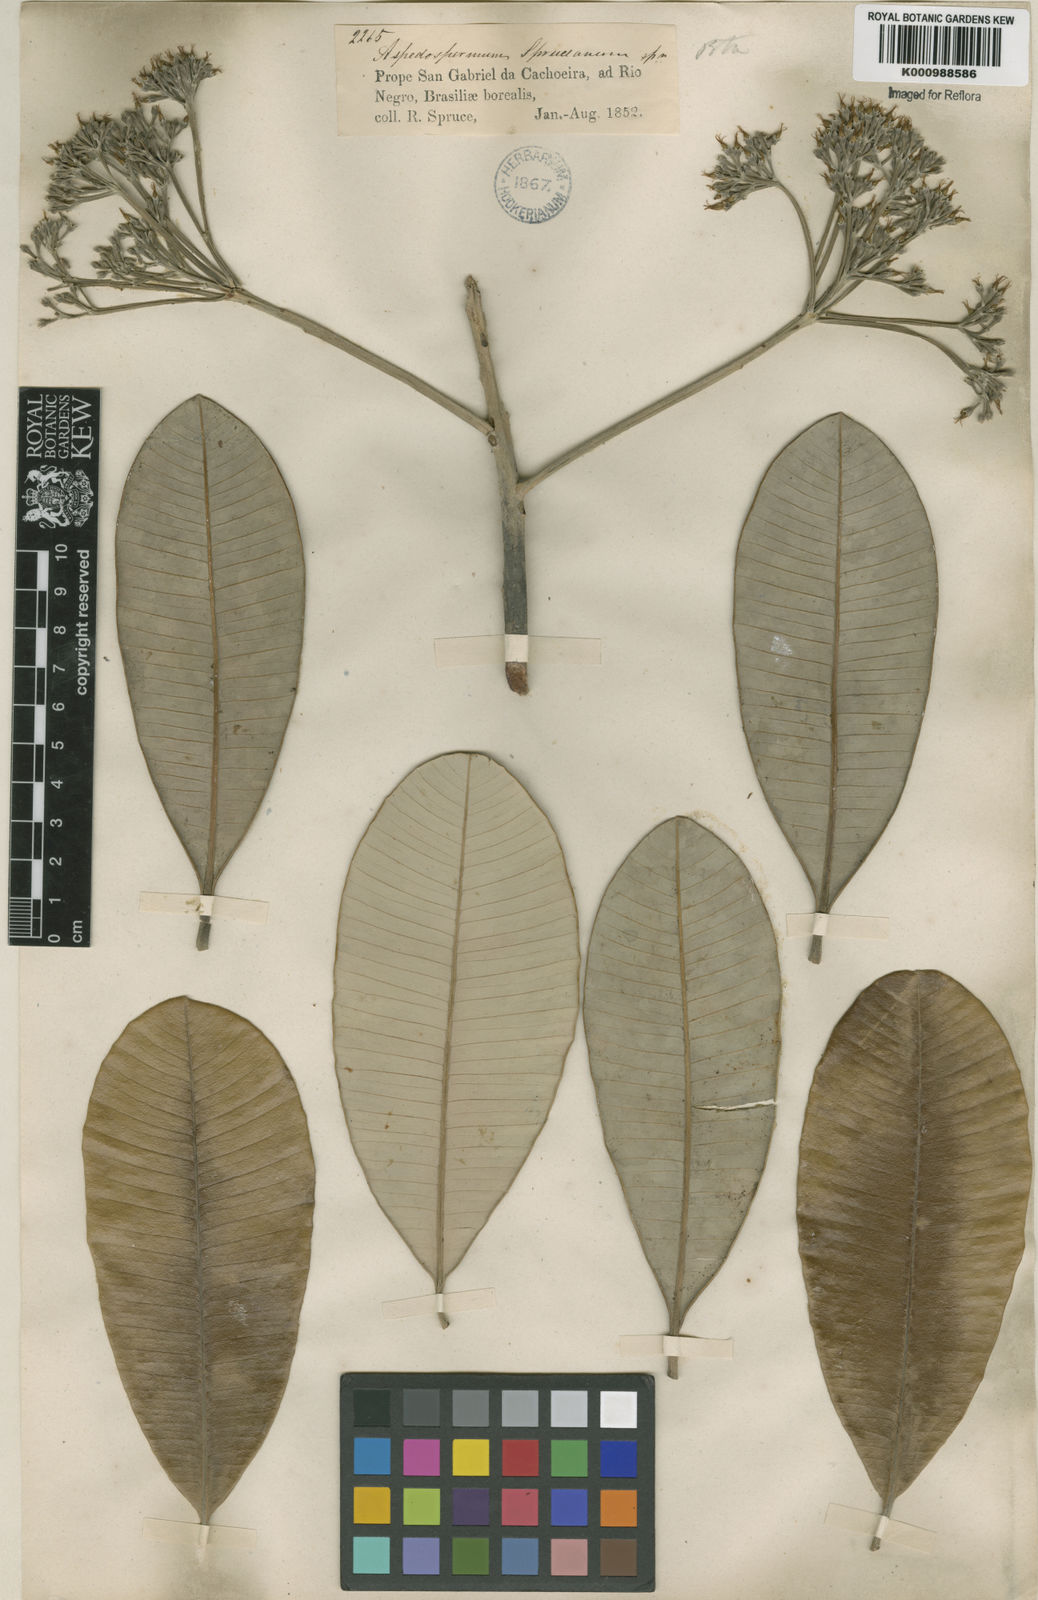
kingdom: Plantae
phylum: Tracheophyta
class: Magnoliopsida
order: Gentianales
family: Apocynaceae
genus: Aspidosperma
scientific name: Aspidosperma
